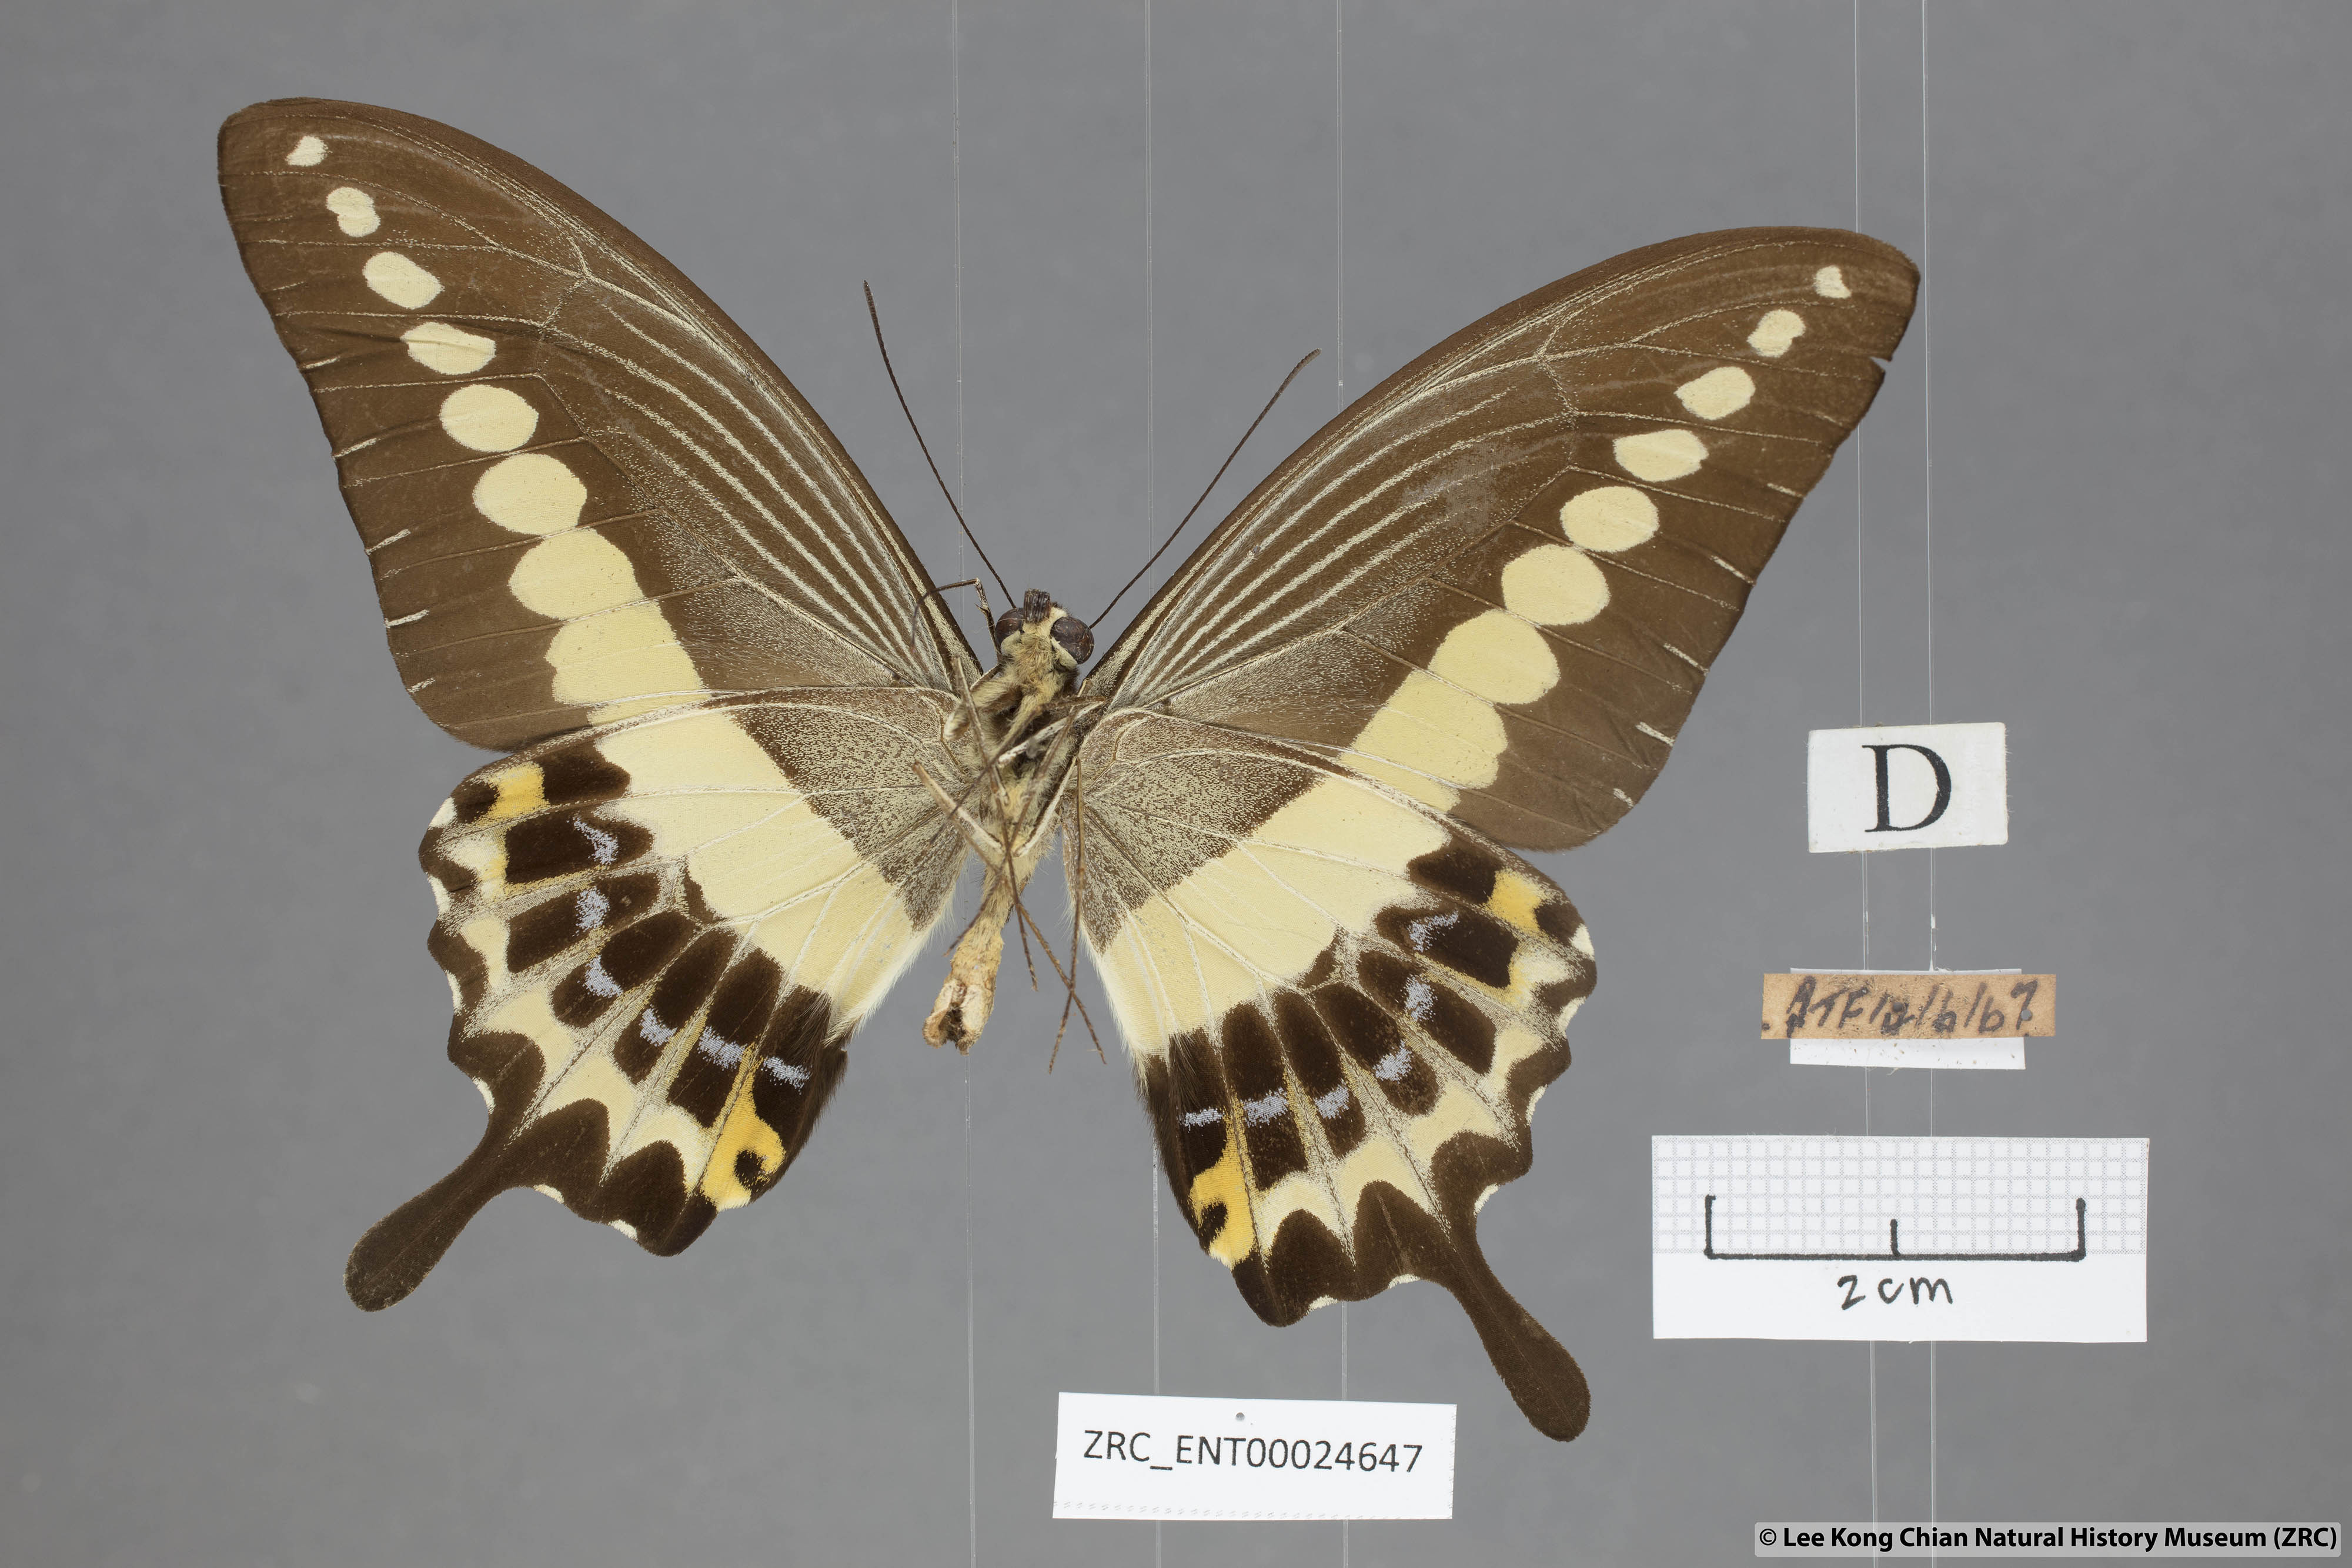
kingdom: Animalia
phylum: Arthropoda
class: Insecta
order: Lepidoptera
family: Papilionidae
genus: Papilio
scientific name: Papilio demolion
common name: Banded swallowtail
